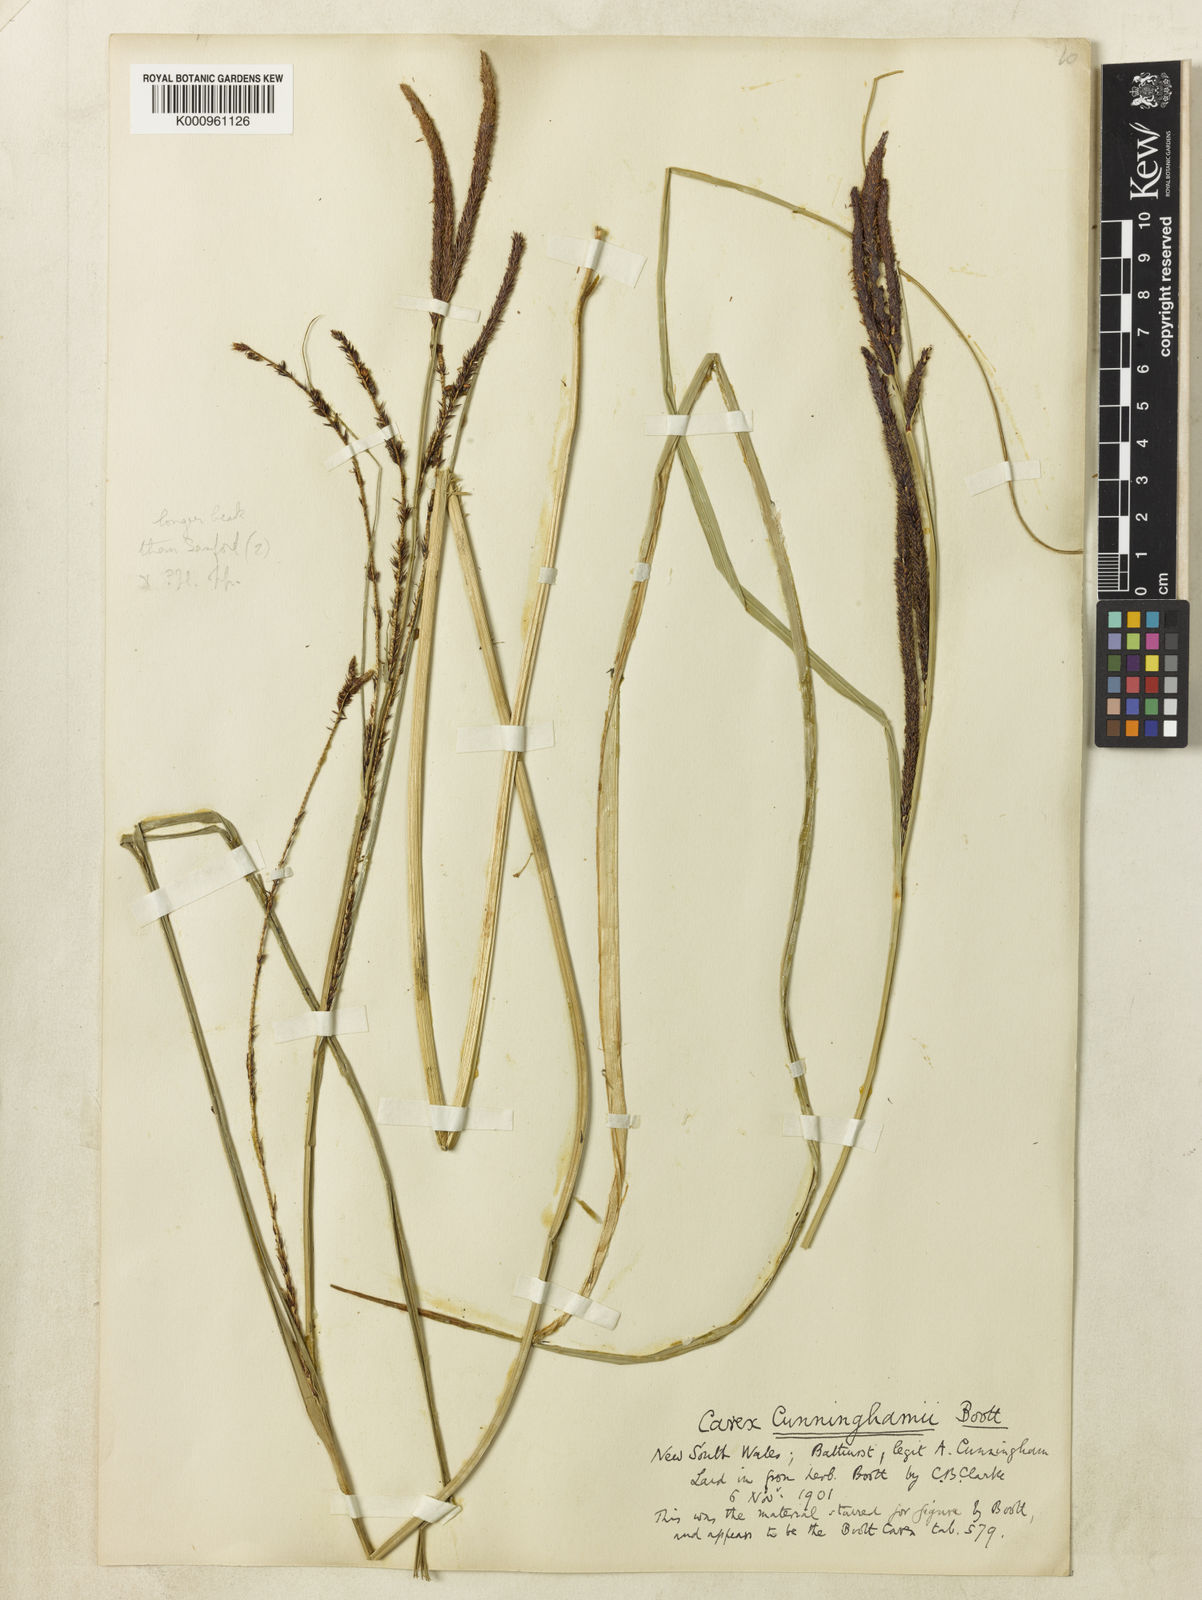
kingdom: Plantae
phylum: Tracheophyta
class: Liliopsida
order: Poales
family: Cyperaceae
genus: Carex
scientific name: Carex polyantha
